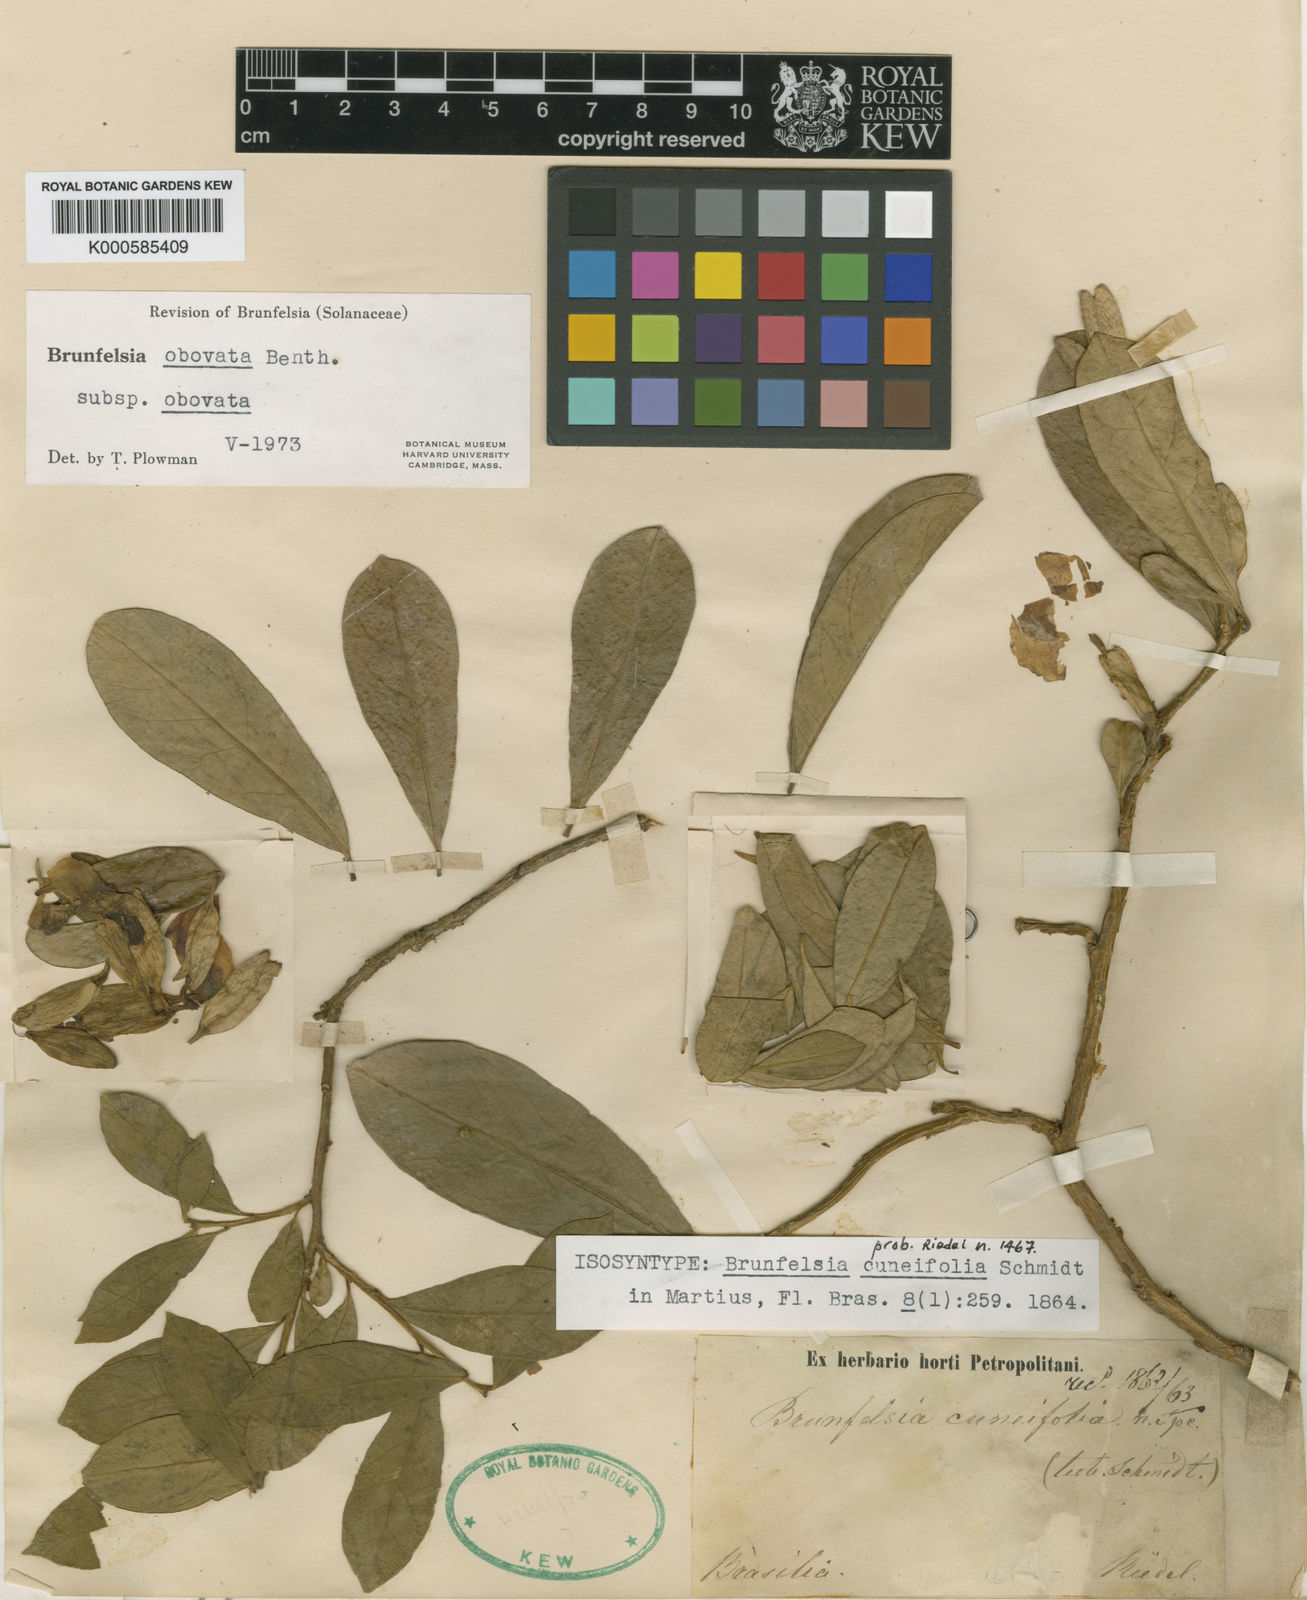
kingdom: Plantae
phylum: Tracheophyta
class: Magnoliopsida
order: Solanales
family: Solanaceae
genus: Brunfelsia
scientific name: Brunfelsia obovata
